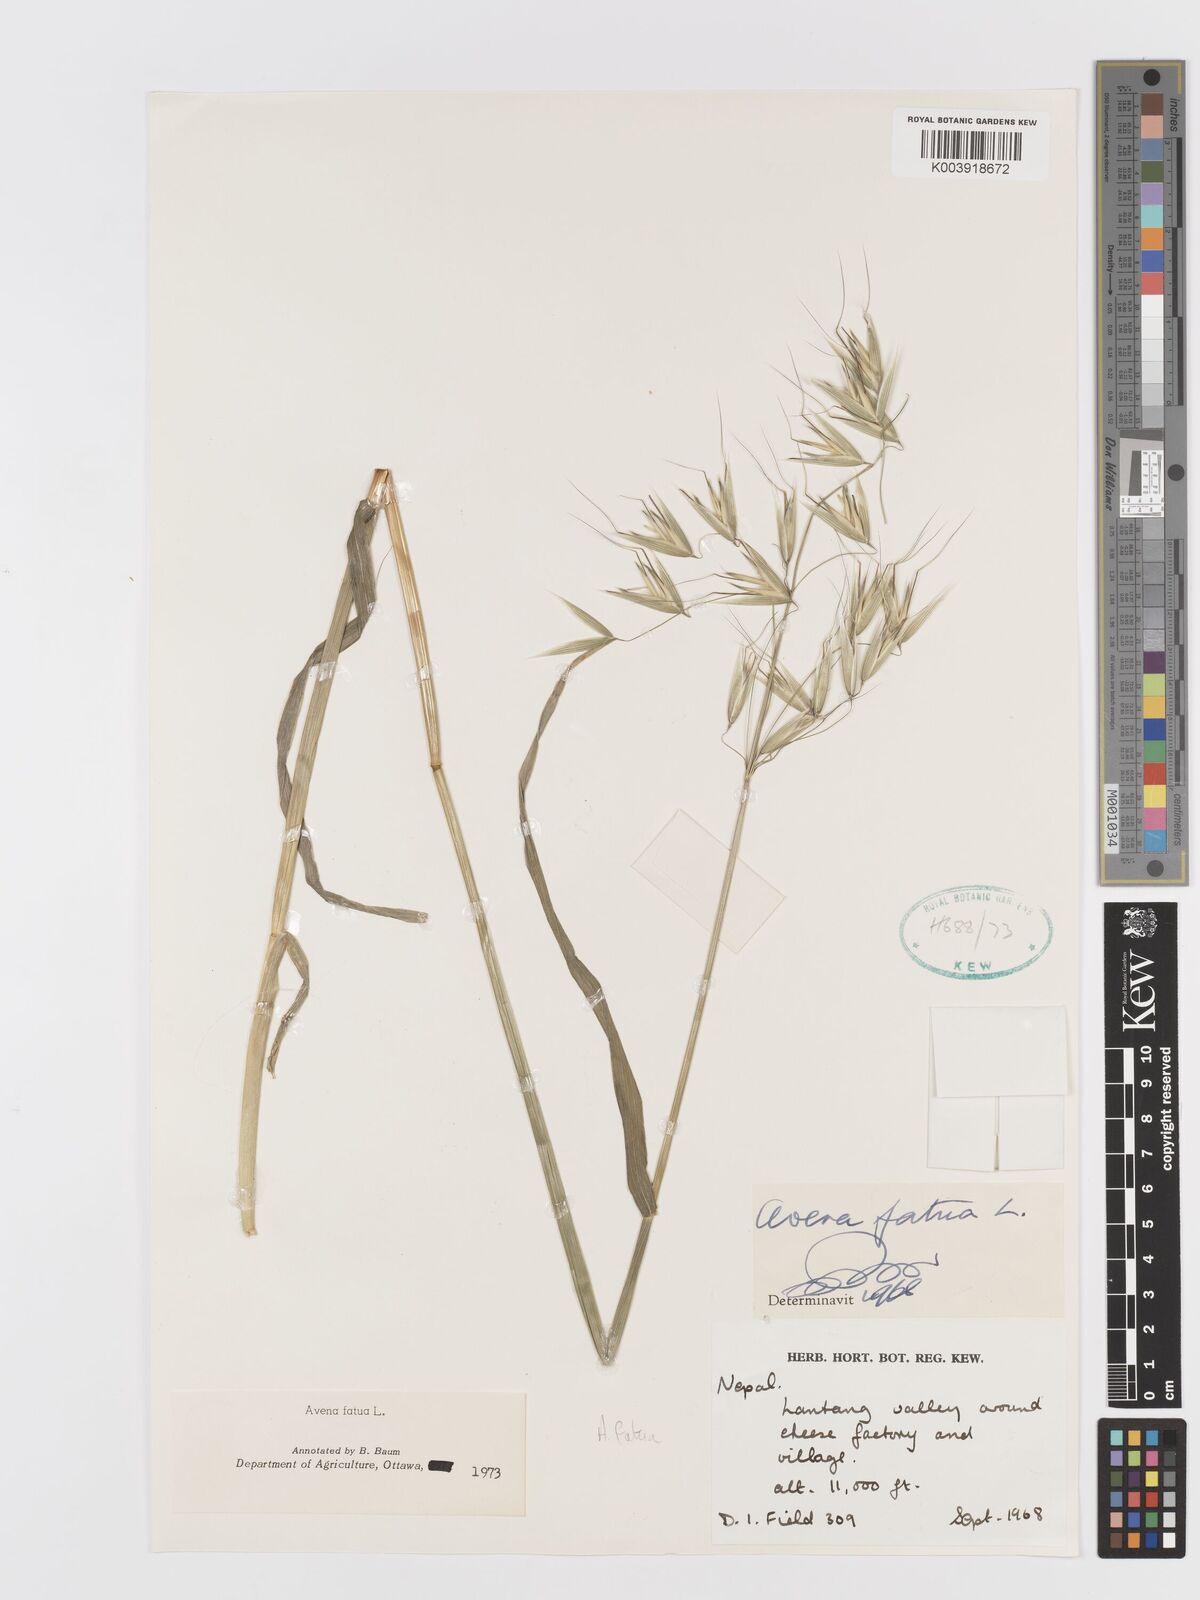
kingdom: Plantae
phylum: Tracheophyta
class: Liliopsida
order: Poales
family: Poaceae
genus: Avena
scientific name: Avena fatua
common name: Wild oat
